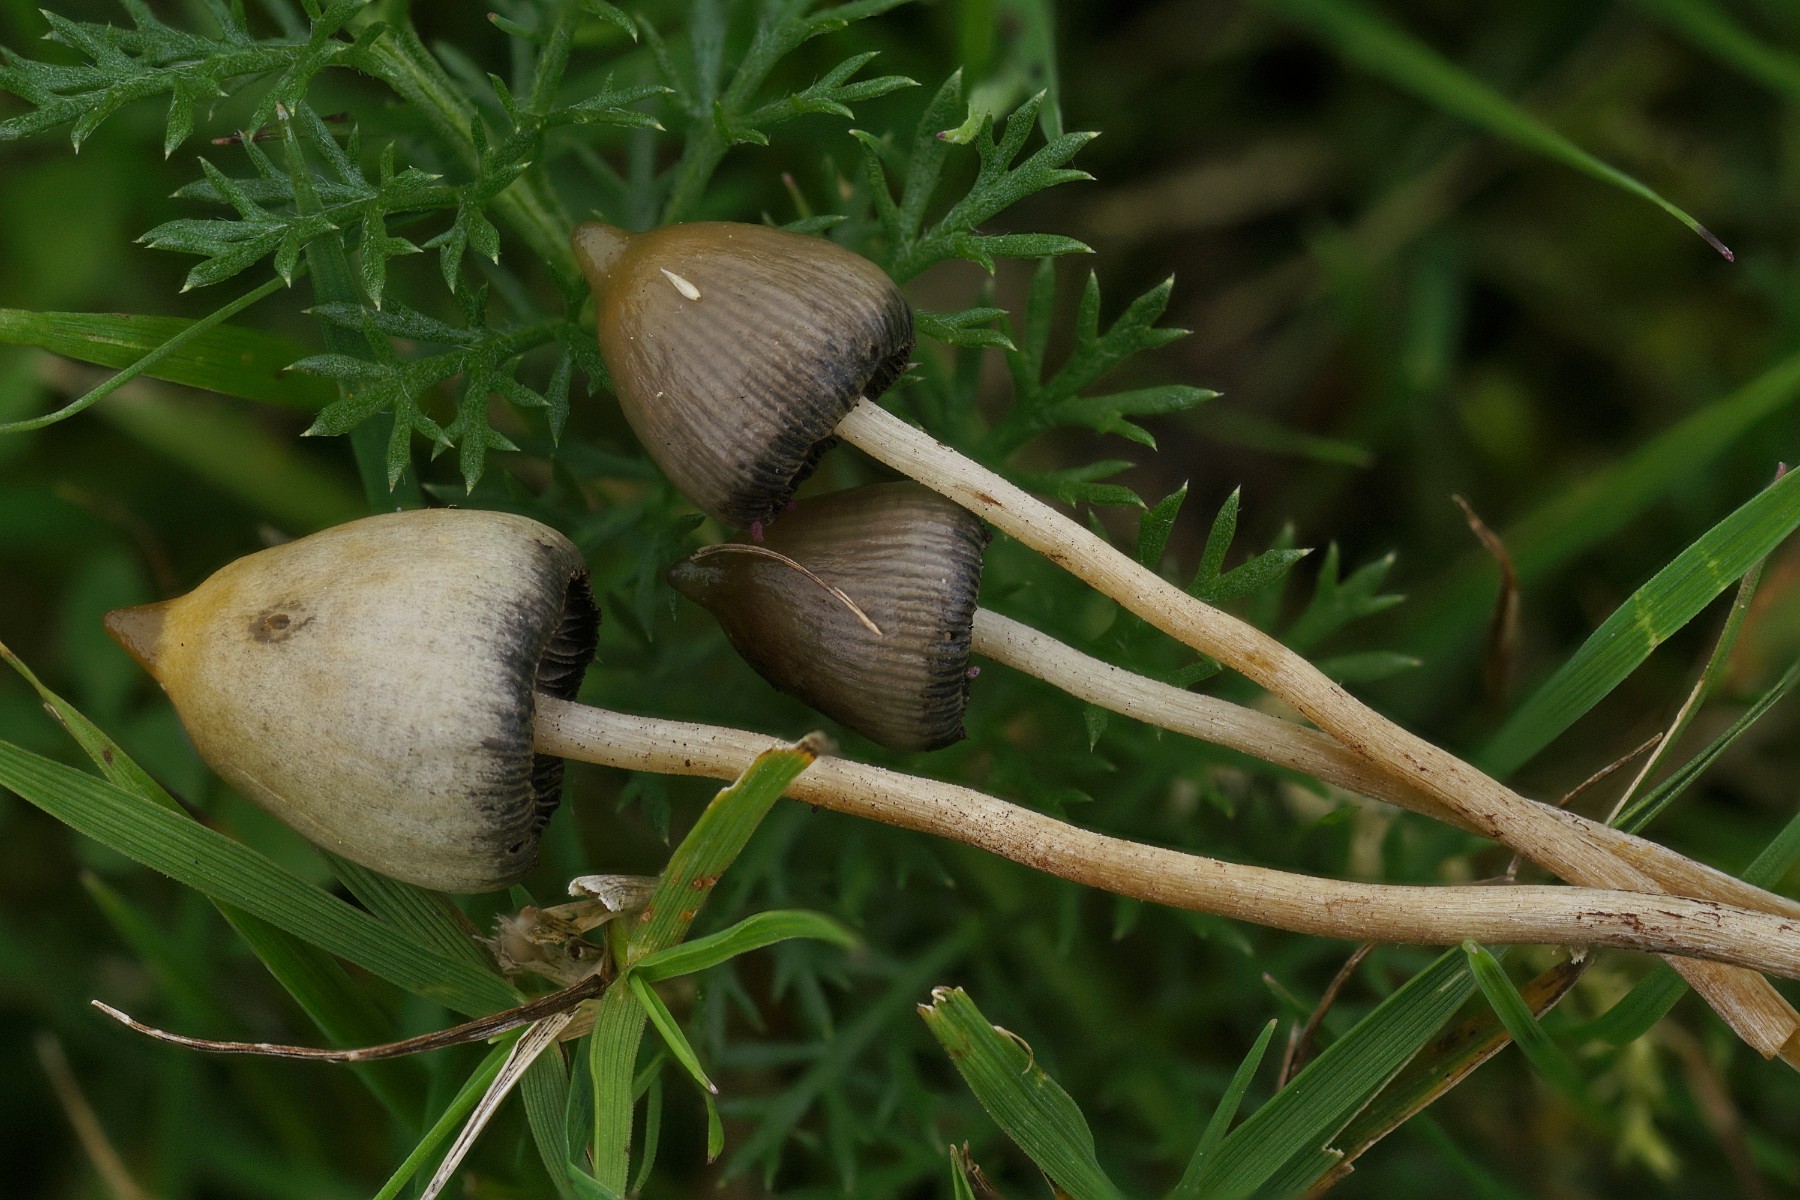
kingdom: Fungi
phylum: Basidiomycota
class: Agaricomycetes
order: Agaricales
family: Hymenogastraceae
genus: Psilocybe
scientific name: Psilocybe semilanceata
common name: spids nøgenhat
